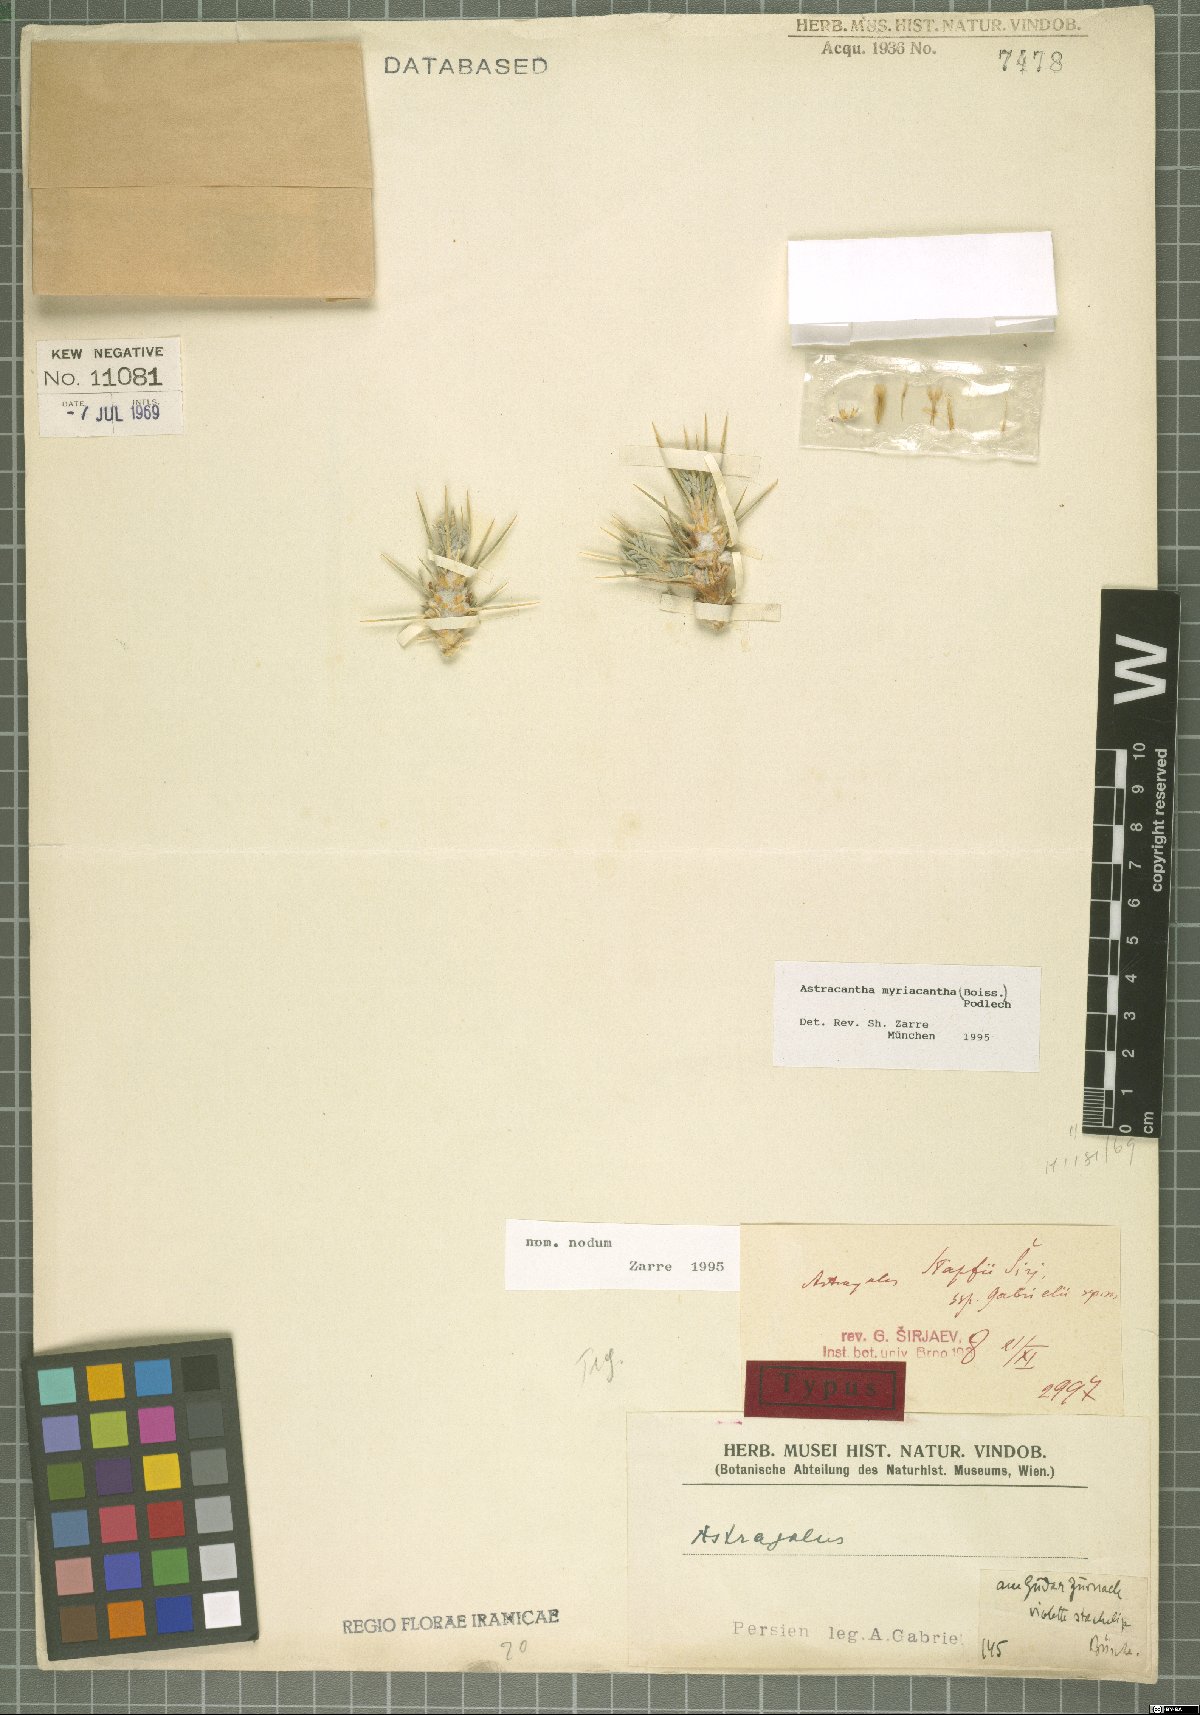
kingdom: Plantae
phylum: Tracheophyta
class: Magnoliopsida
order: Fabales
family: Fabaceae
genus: Astragalus
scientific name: Astragalus myriacanthus
